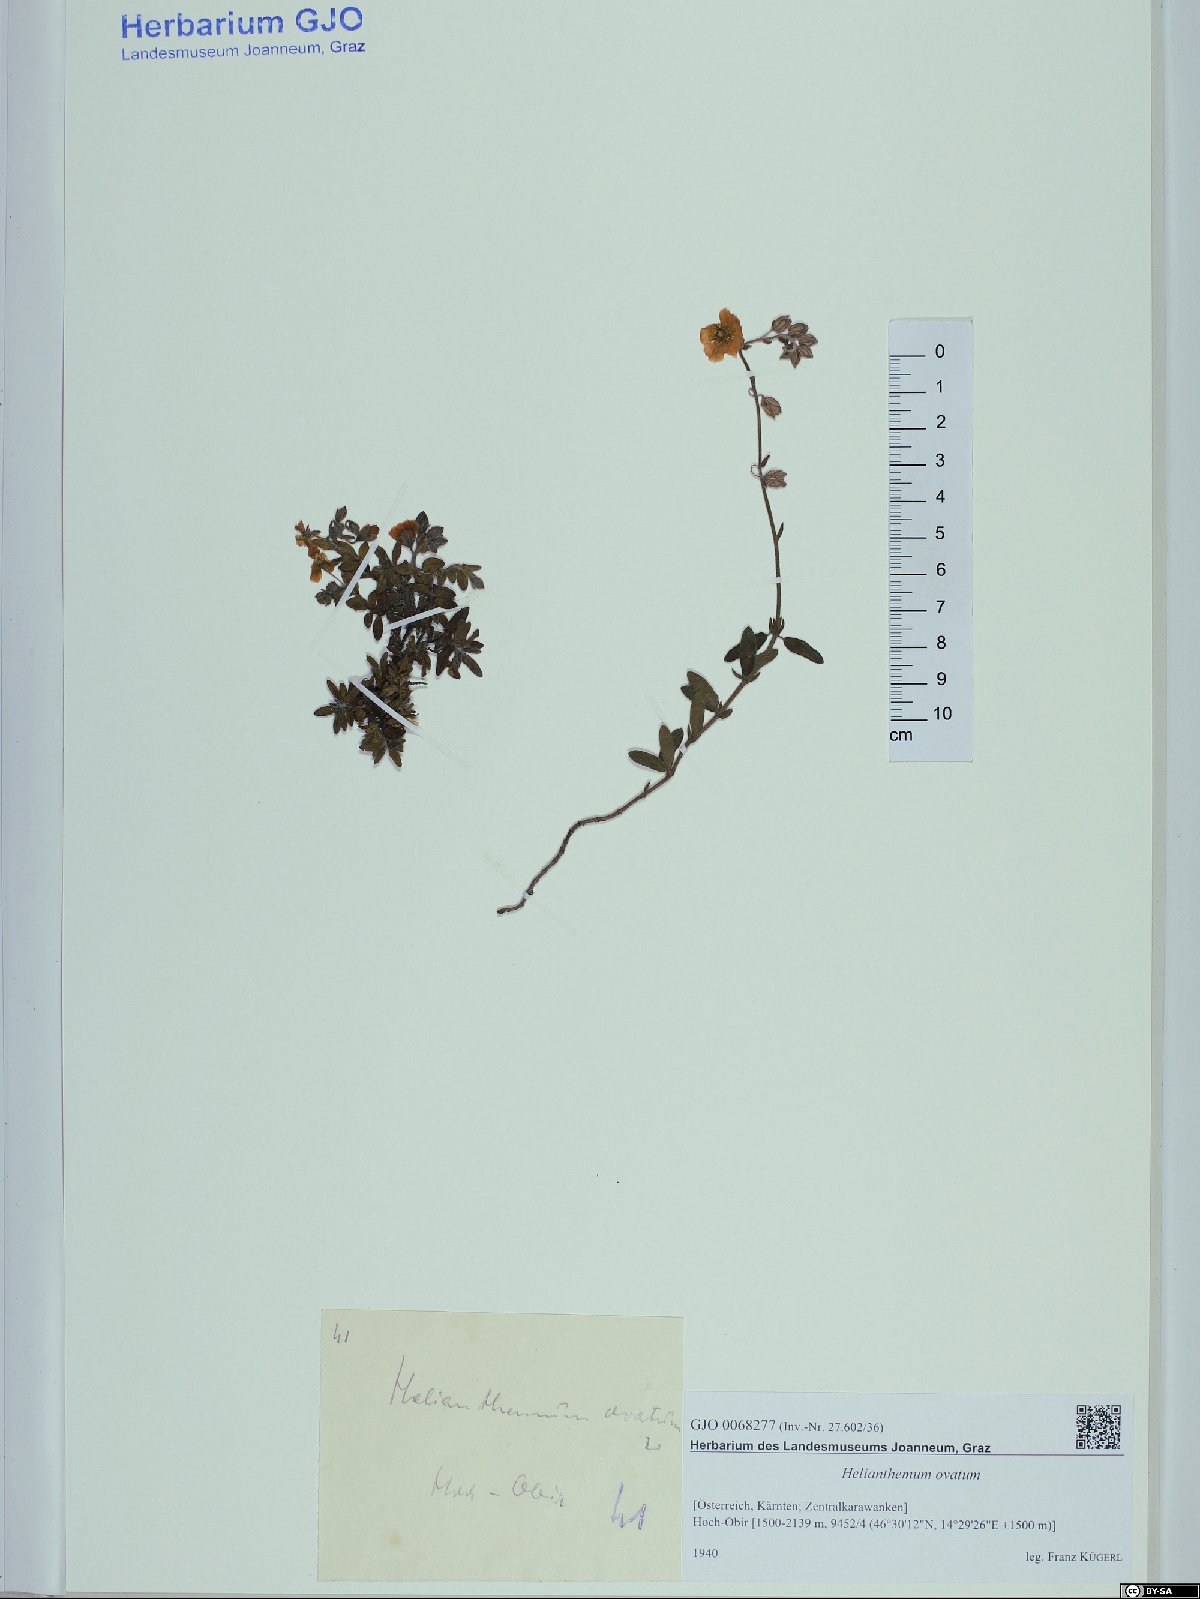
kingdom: Plantae
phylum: Tracheophyta
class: Magnoliopsida
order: Malvales
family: Cistaceae
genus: Helianthemum
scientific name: Helianthemum nummularium
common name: Common rock-rose
